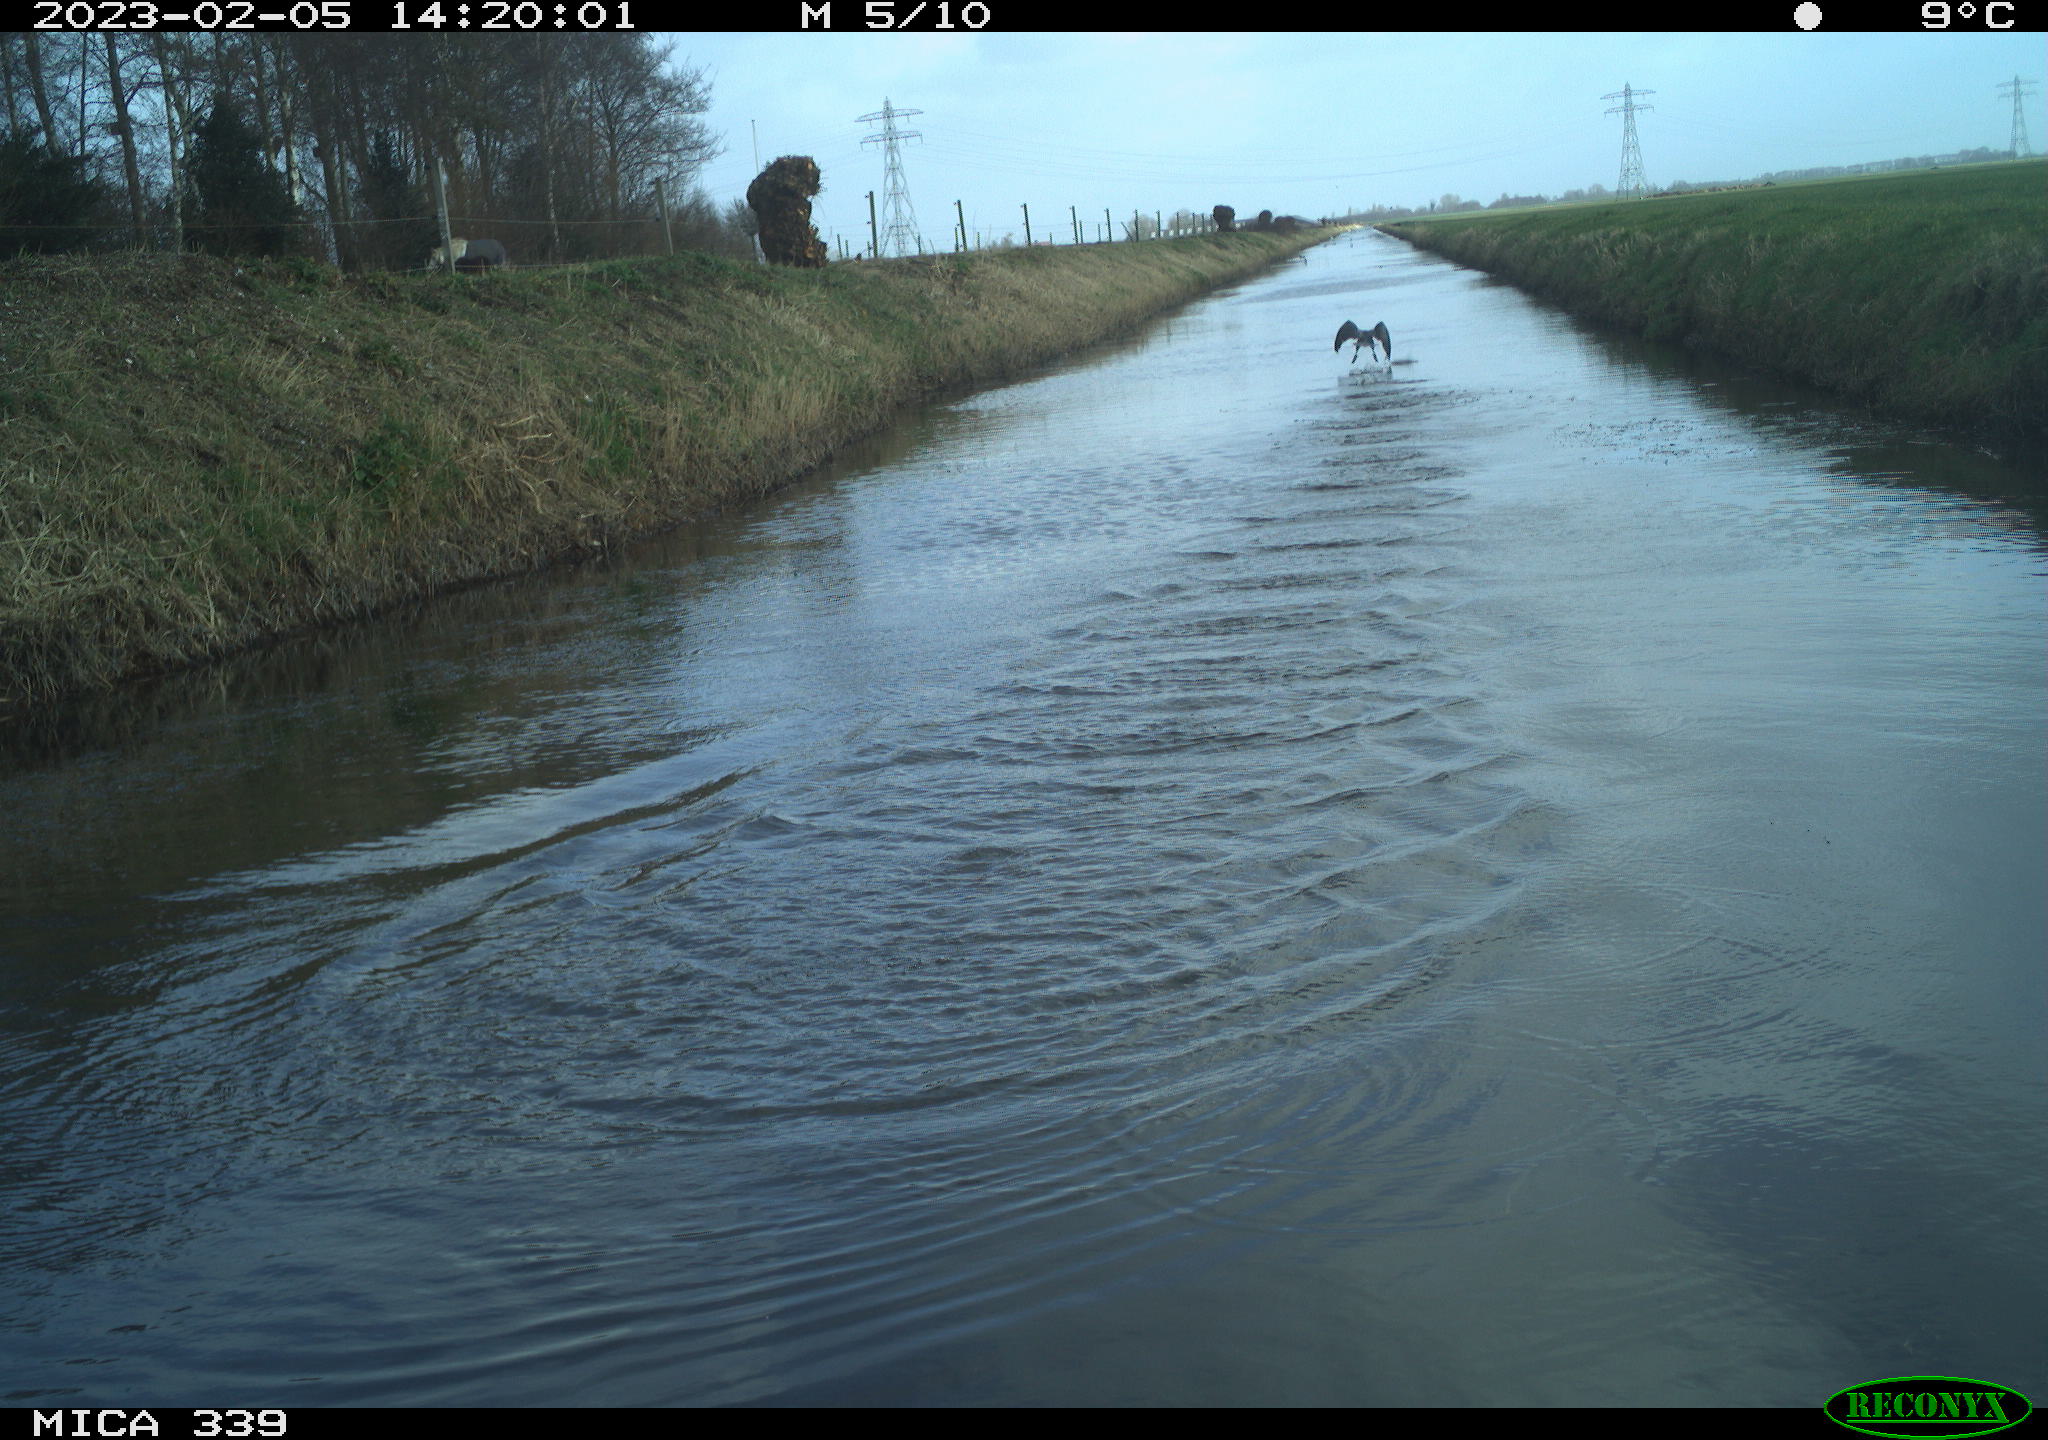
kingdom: Animalia
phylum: Chordata
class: Aves
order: Suliformes
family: Phalacrocoracidae
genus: Phalacrocorax
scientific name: Phalacrocorax carbo
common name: Great cormorant
